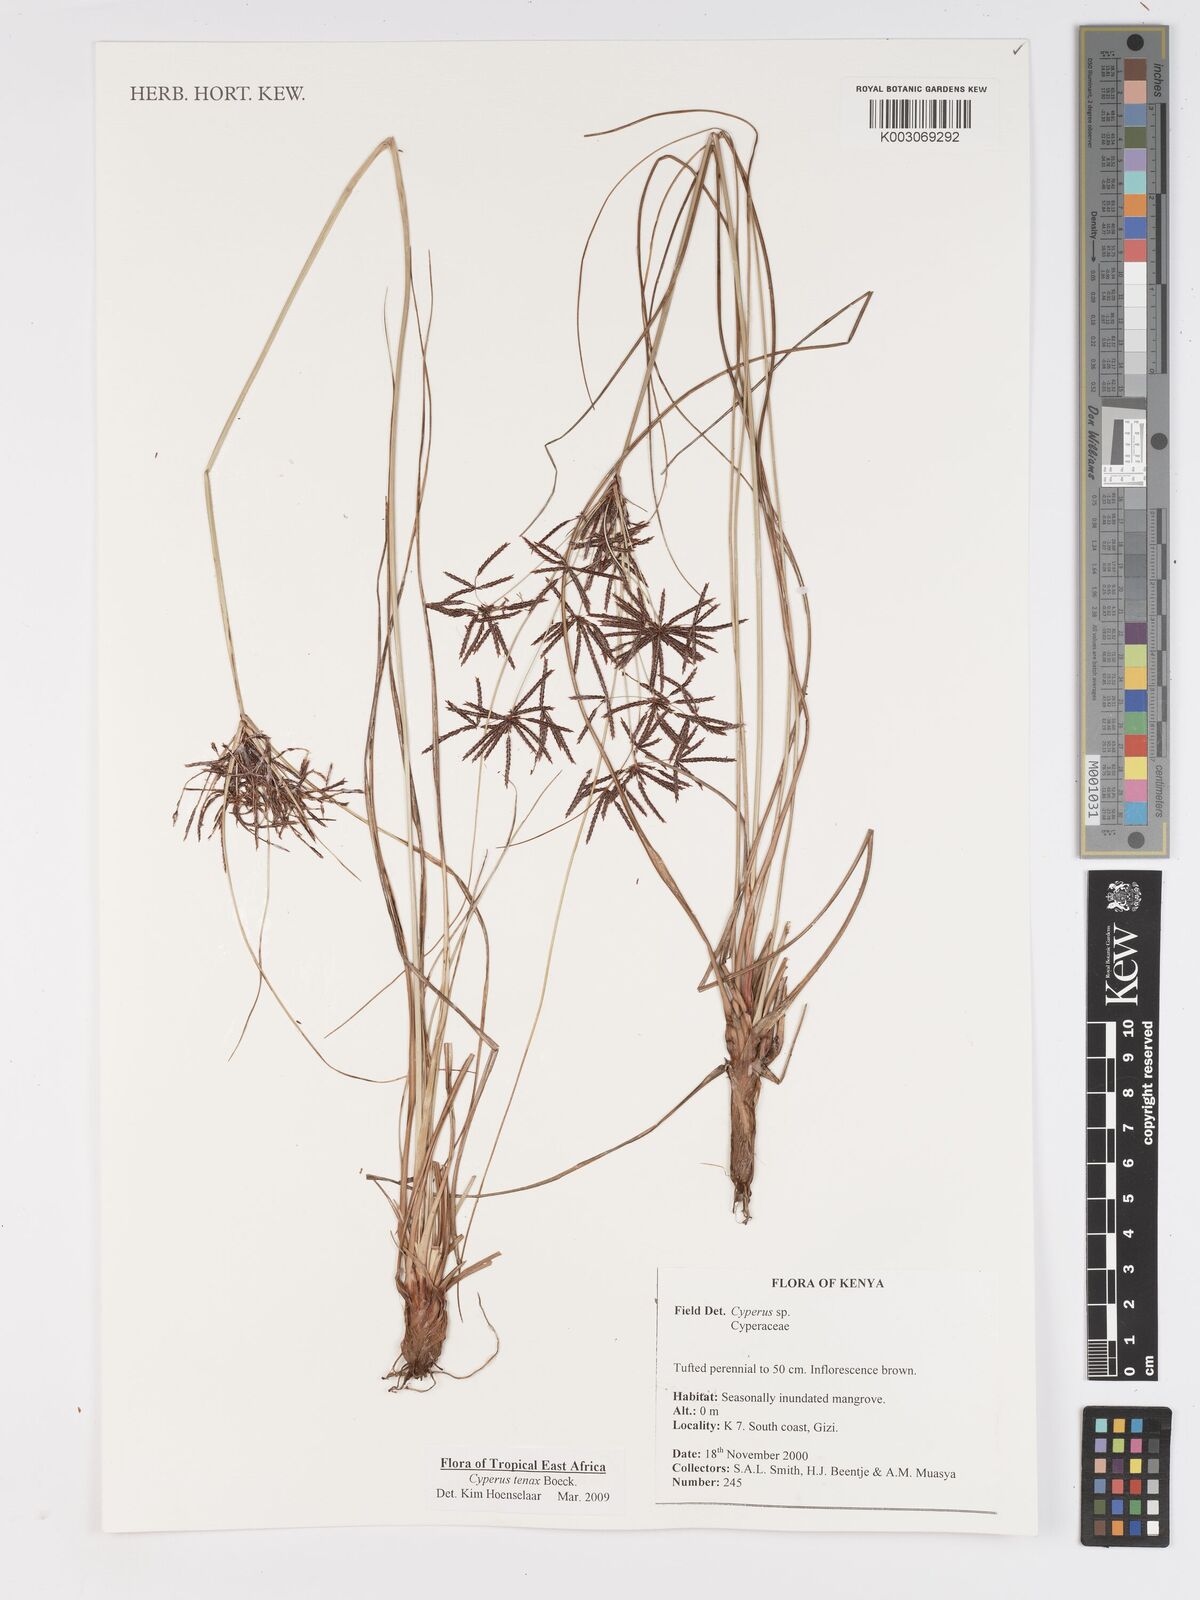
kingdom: Plantae
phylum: Tracheophyta
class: Liliopsida
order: Poales
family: Cyperaceae
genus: Cyperus
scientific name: Cyperus tenax
